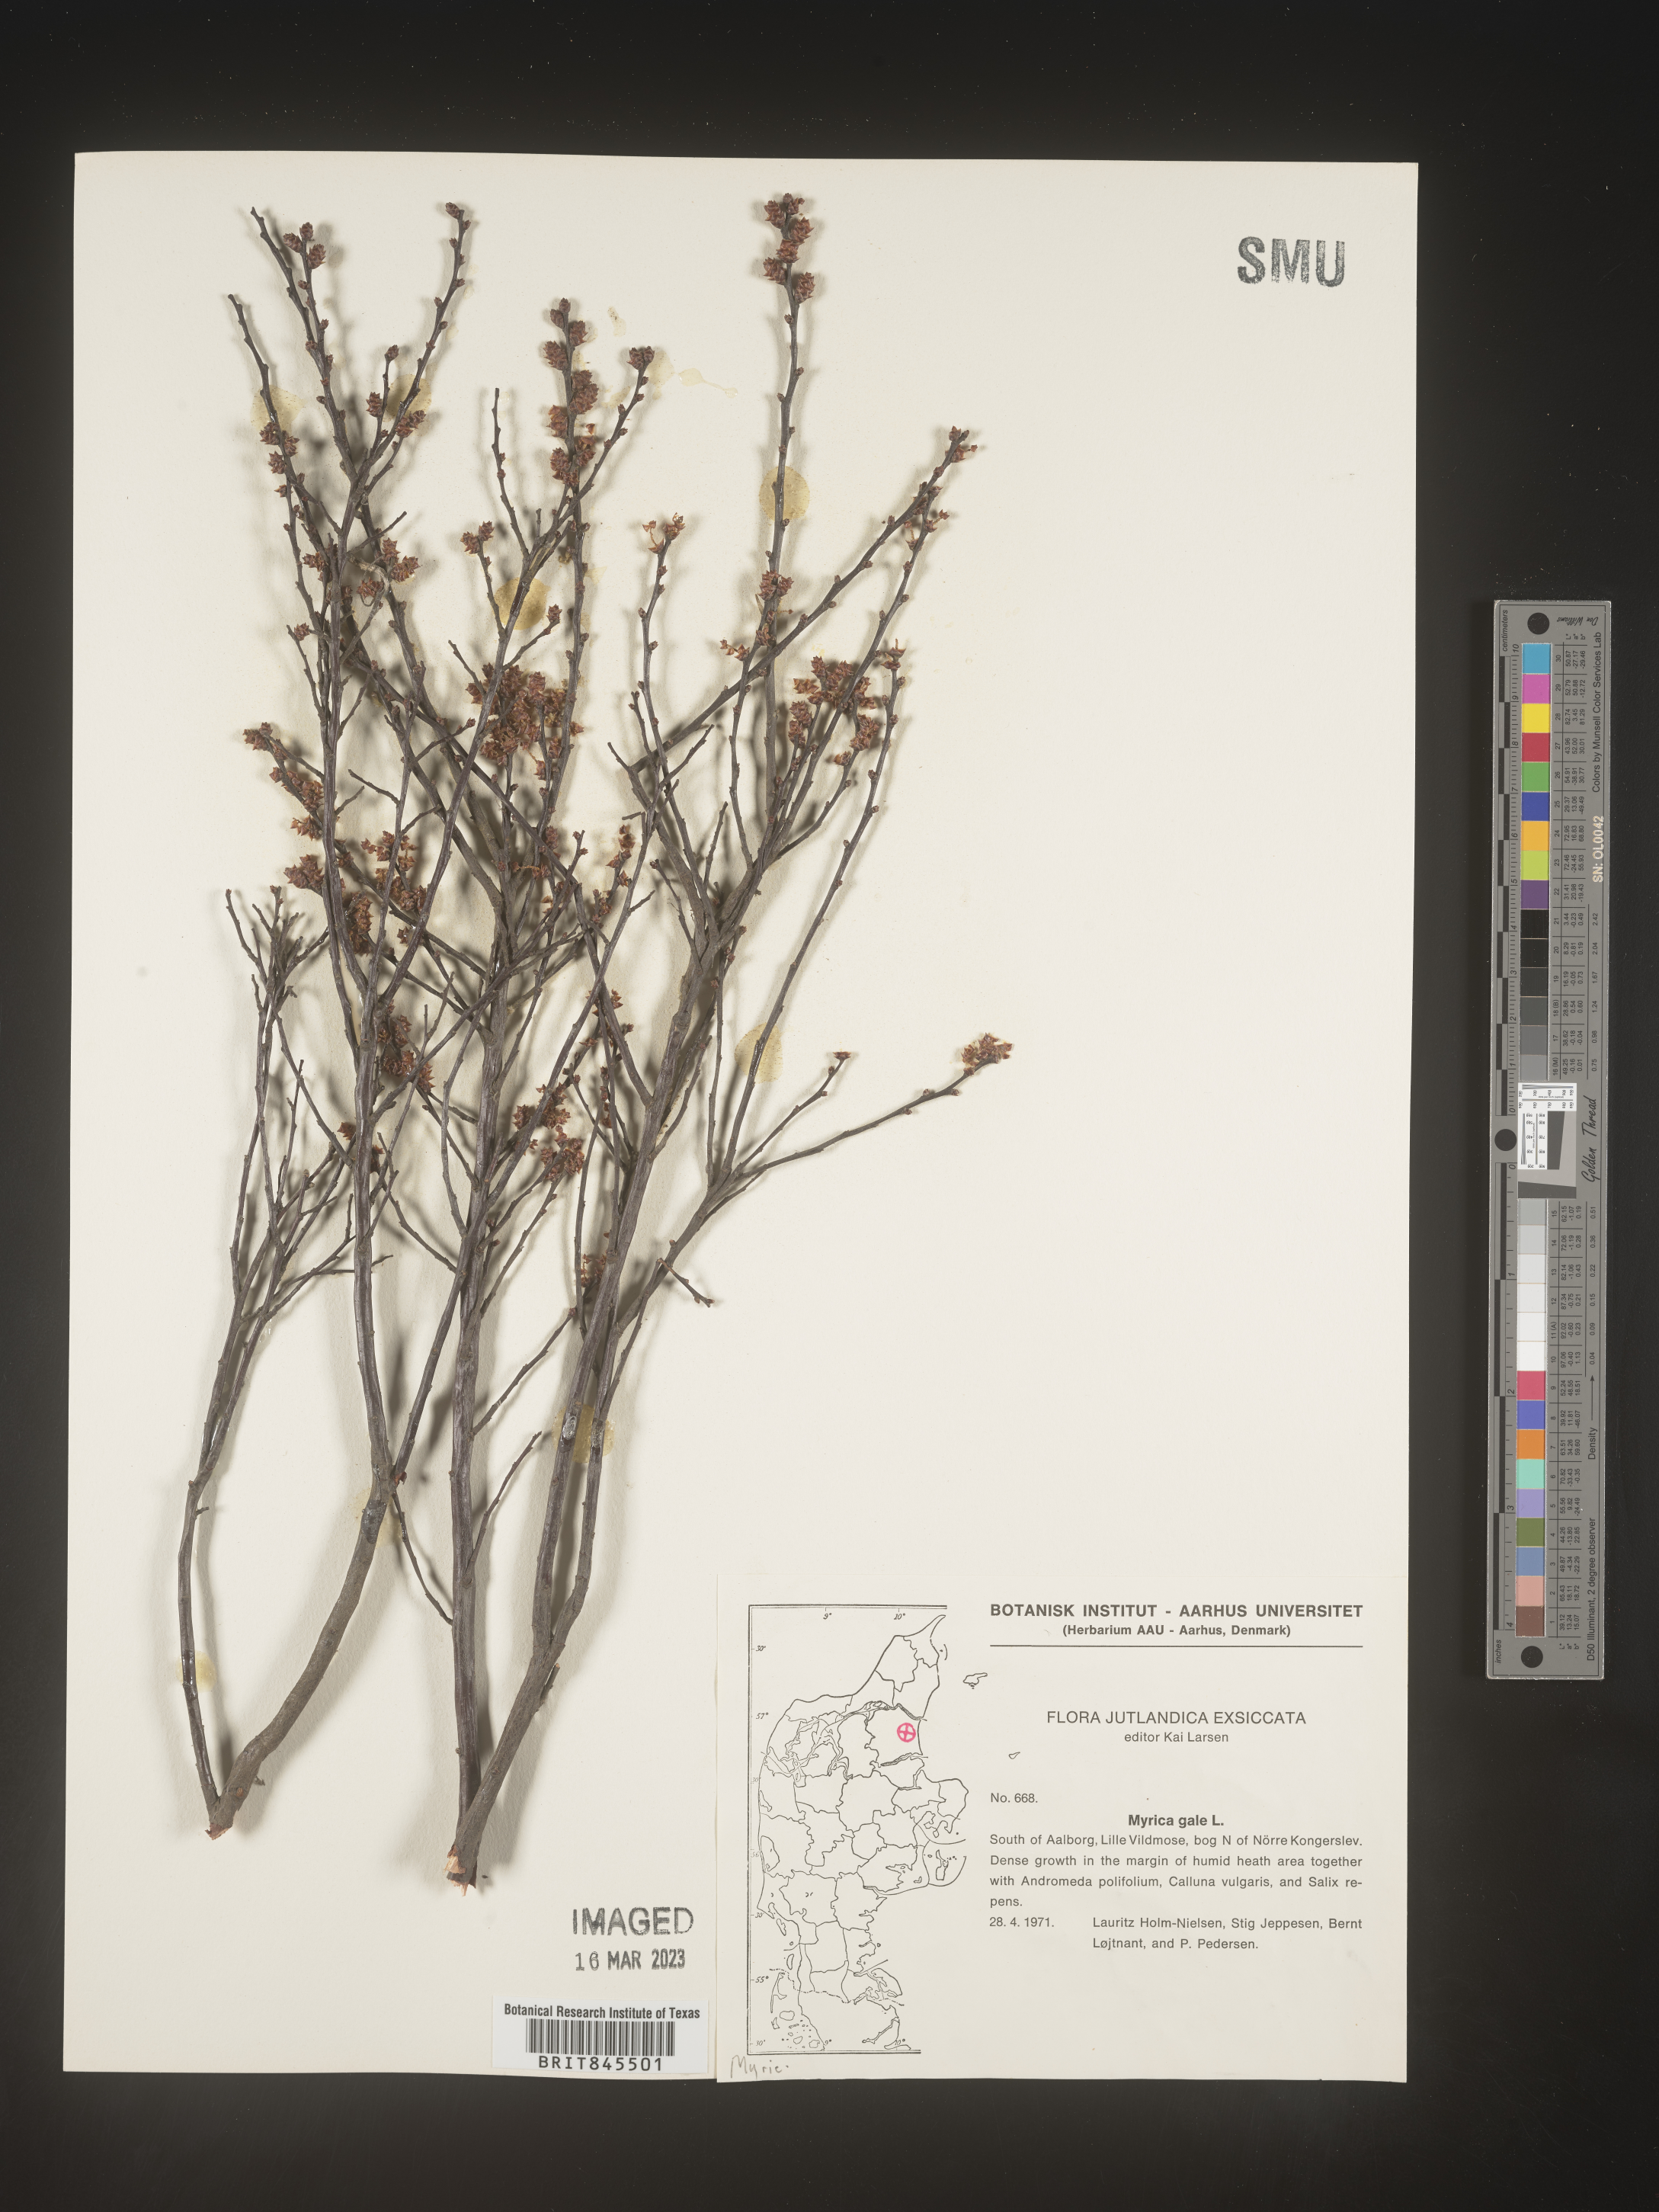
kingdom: Plantae
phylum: Tracheophyta
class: Magnoliopsida
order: Fagales
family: Myricaceae
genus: Myrica
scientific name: Myrica
